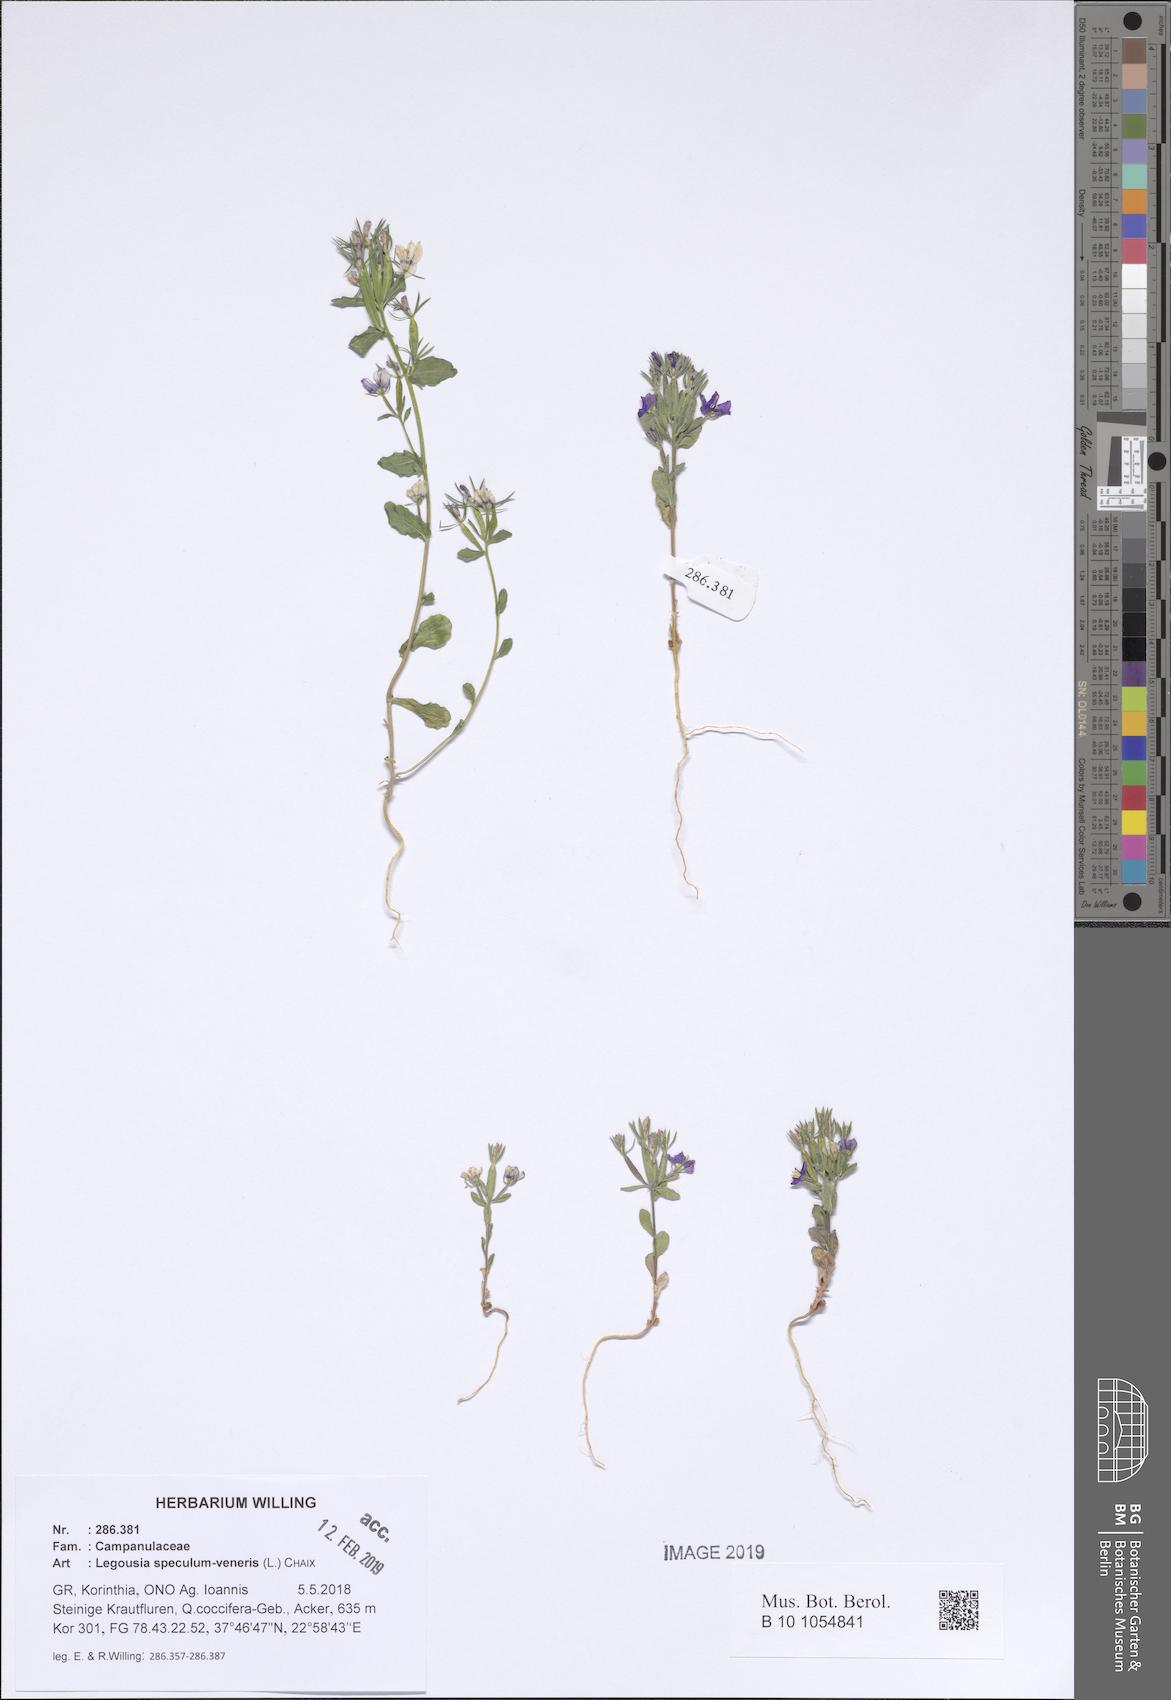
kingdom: Plantae
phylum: Tracheophyta
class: Magnoliopsida
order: Asterales
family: Campanulaceae
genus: Legousia
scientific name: Legousia speculum-veneris
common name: Large venus's-looking-glass
